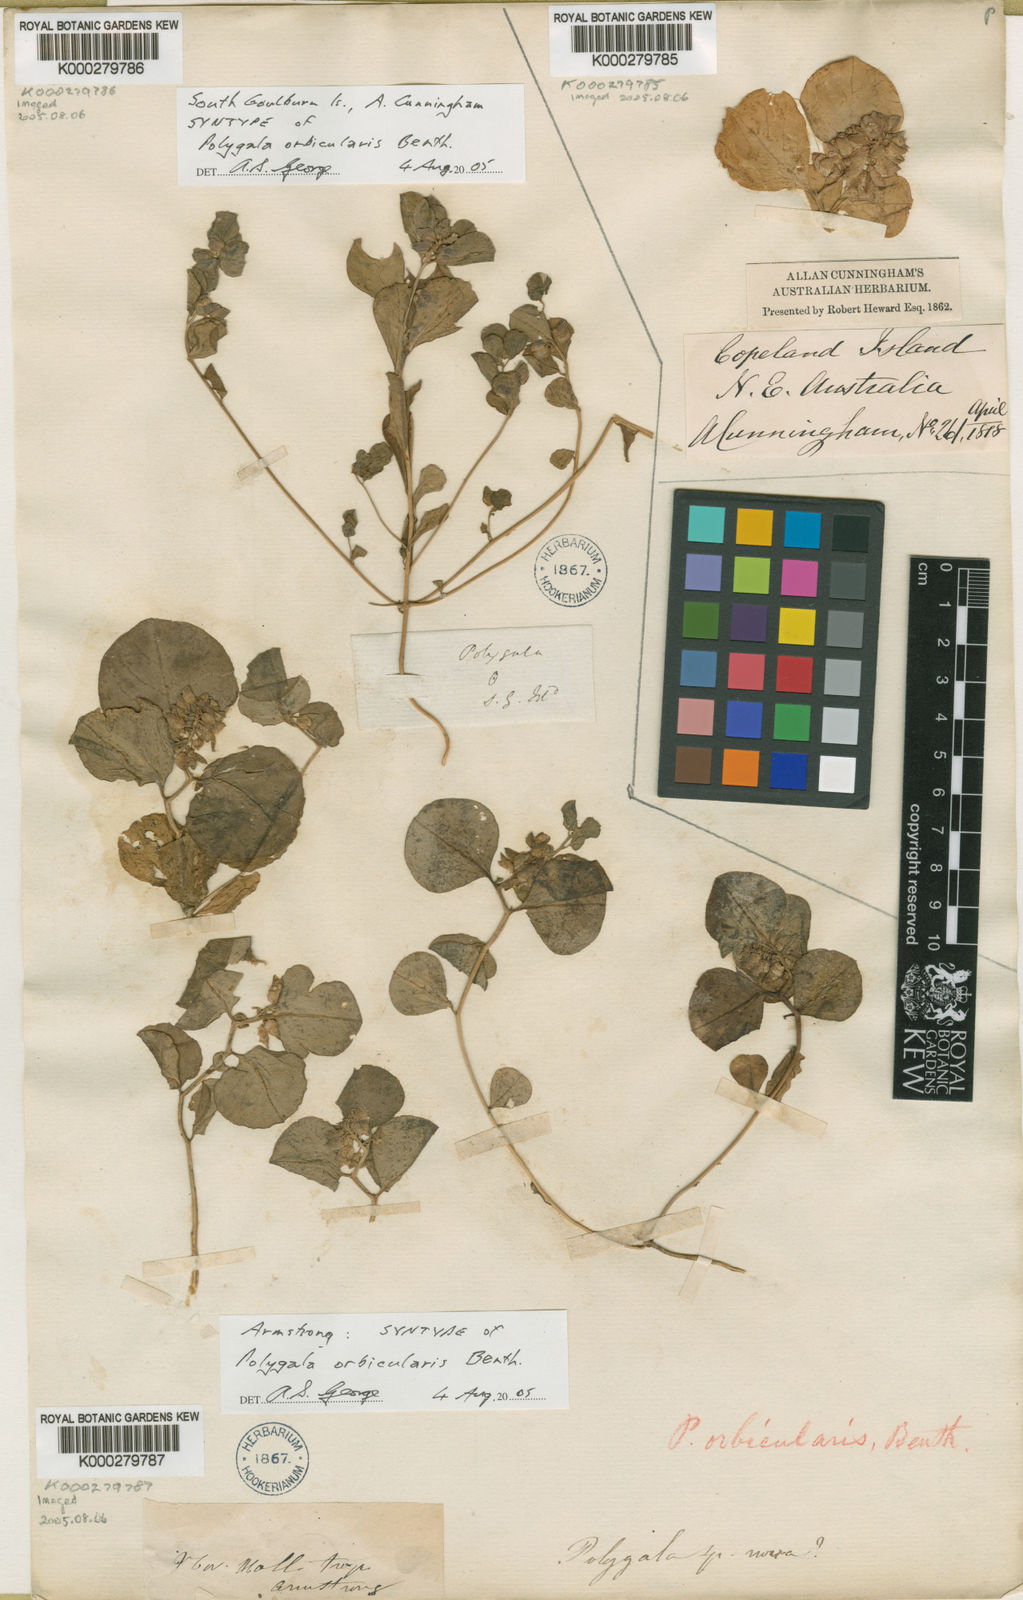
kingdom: Plantae
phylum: Tracheophyta
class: Magnoliopsida
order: Fabales
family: Polygalaceae
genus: Polygala
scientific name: Polygala orbicularis
